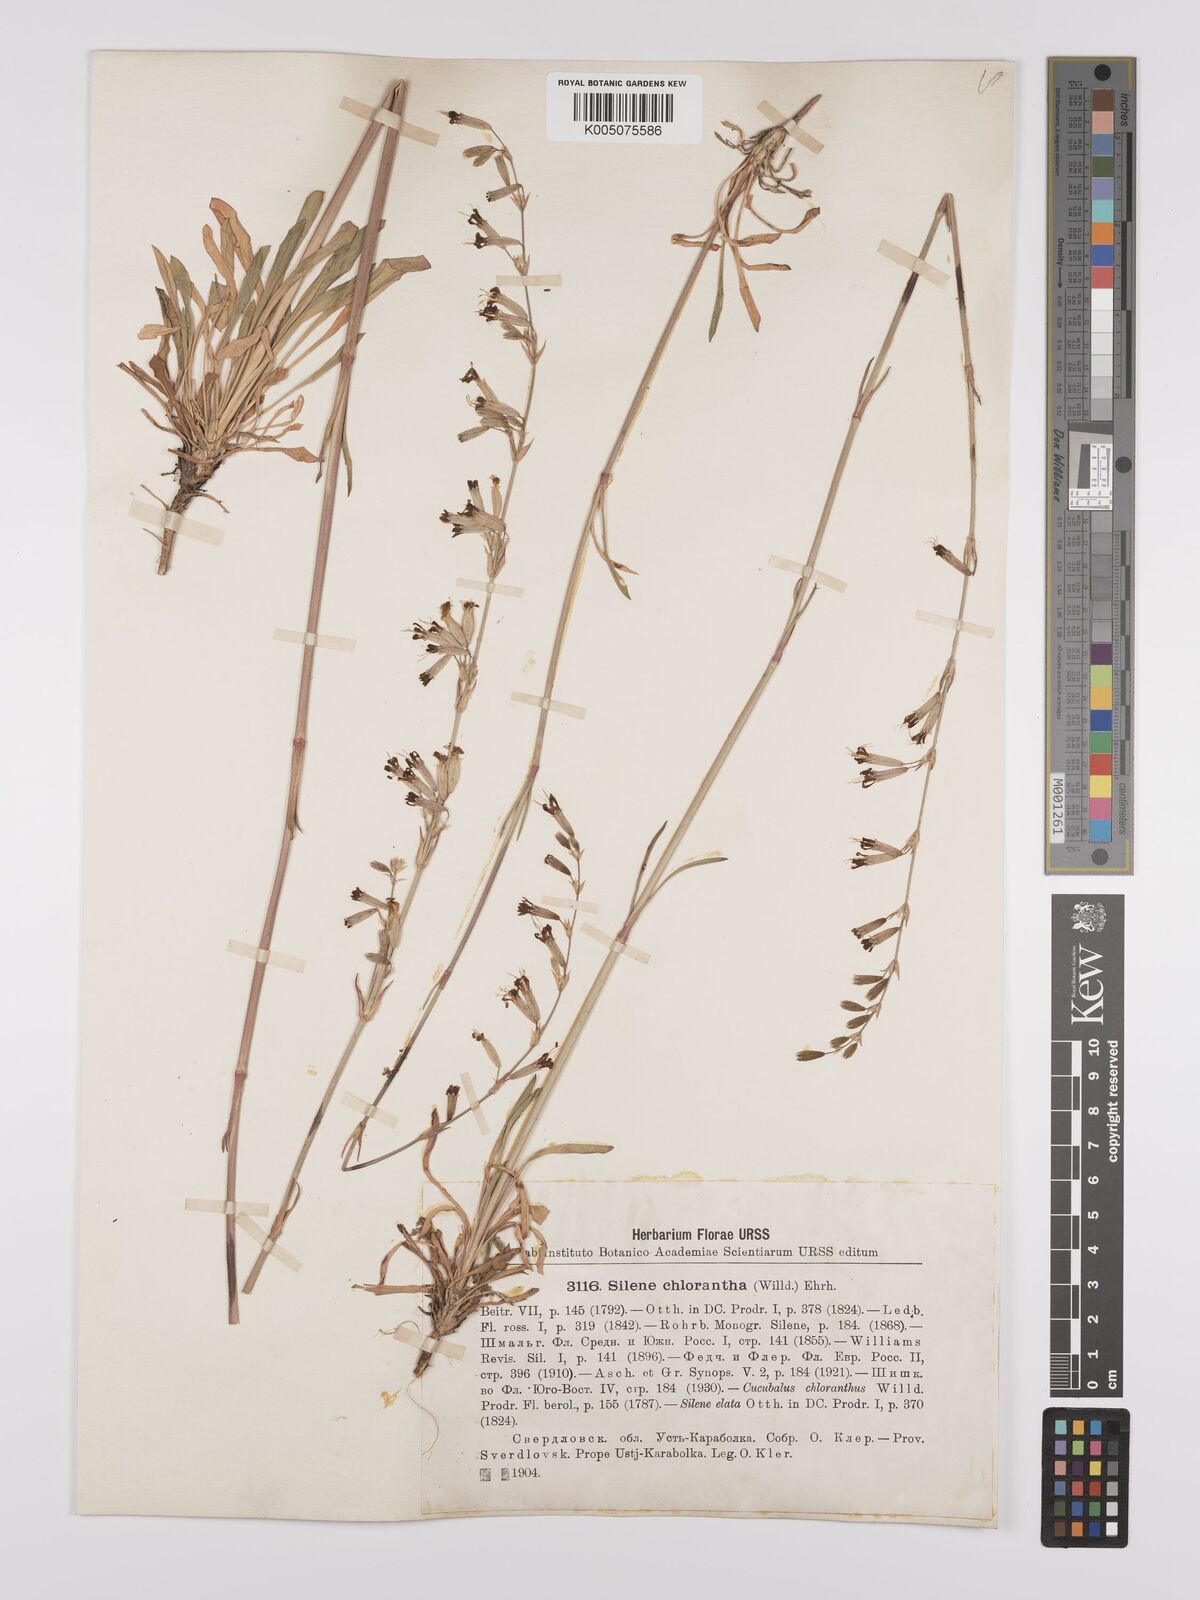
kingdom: Plantae
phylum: Tracheophyta
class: Magnoliopsida
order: Caryophyllales
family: Caryophyllaceae
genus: Silene
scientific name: Silene
